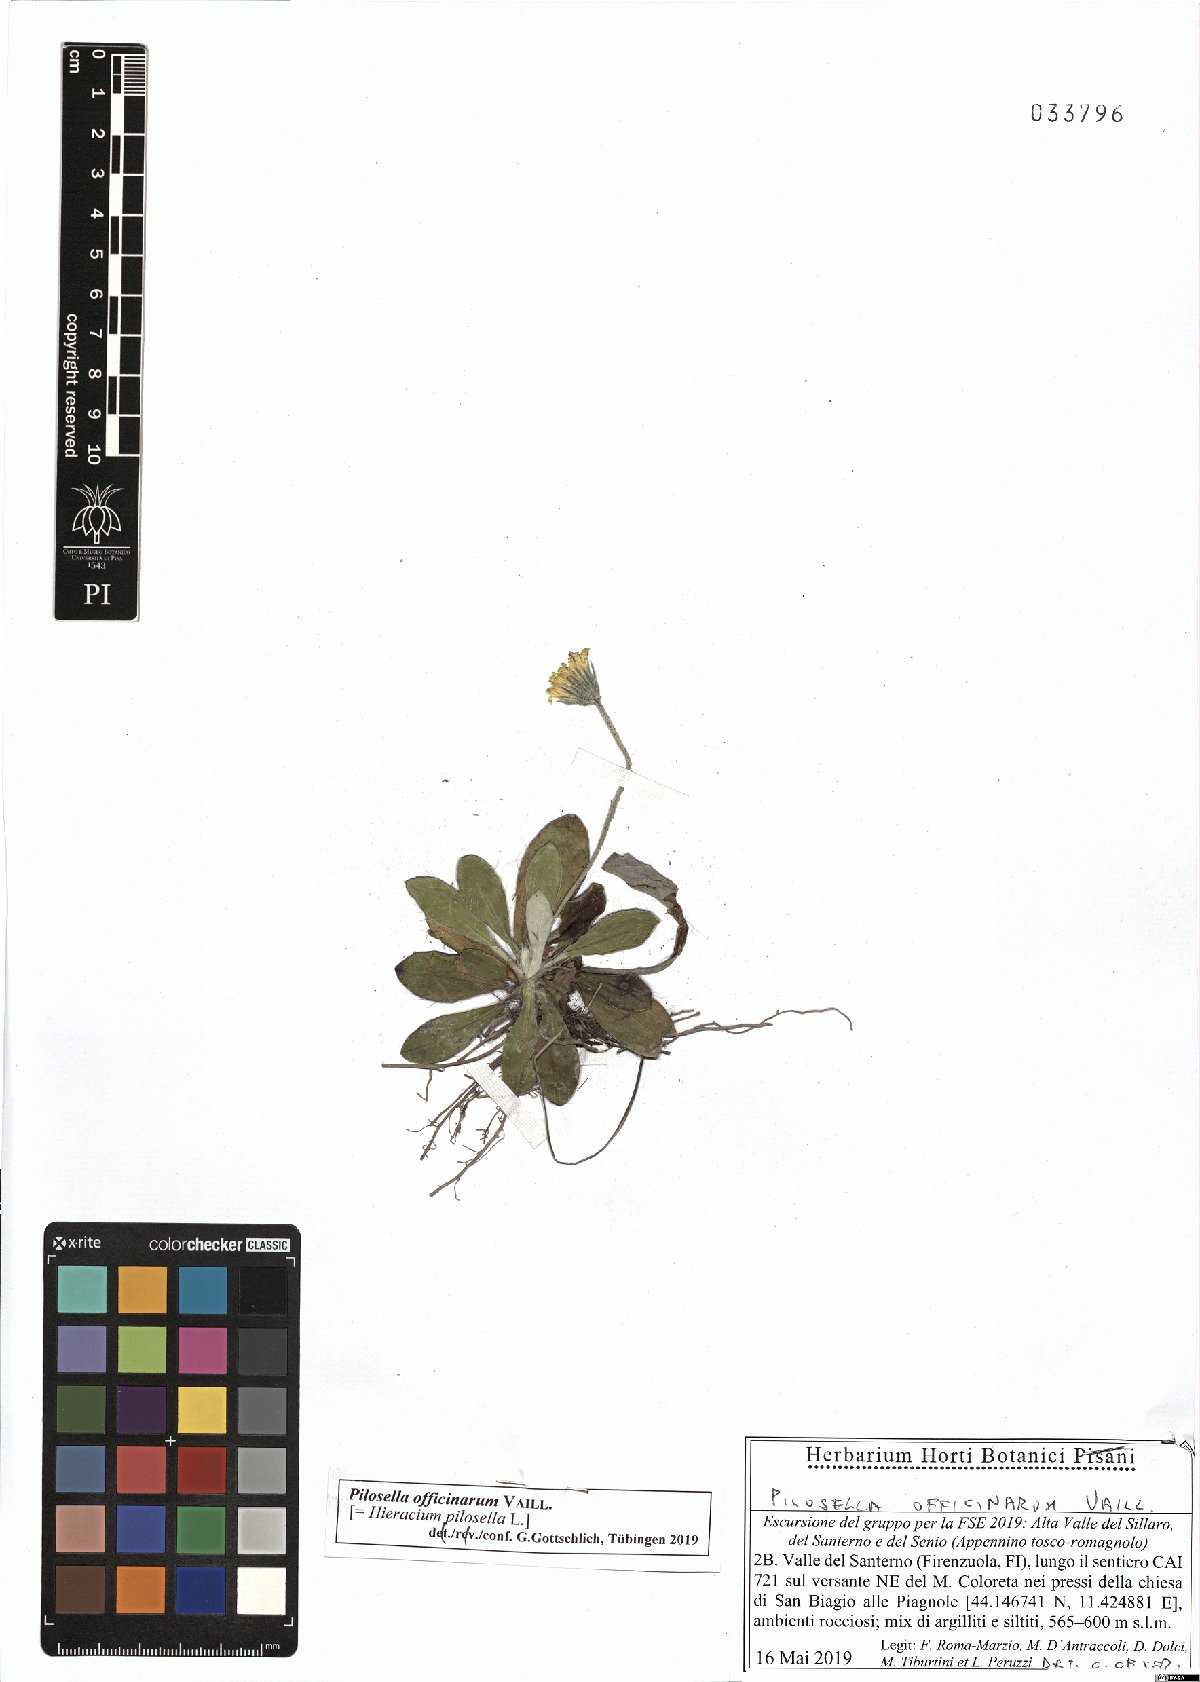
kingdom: Plantae
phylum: Tracheophyta
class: Magnoliopsida
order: Asterales
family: Asteraceae
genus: Pilosella
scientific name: Pilosella officinarum
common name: Mouse-ear hawkweed
